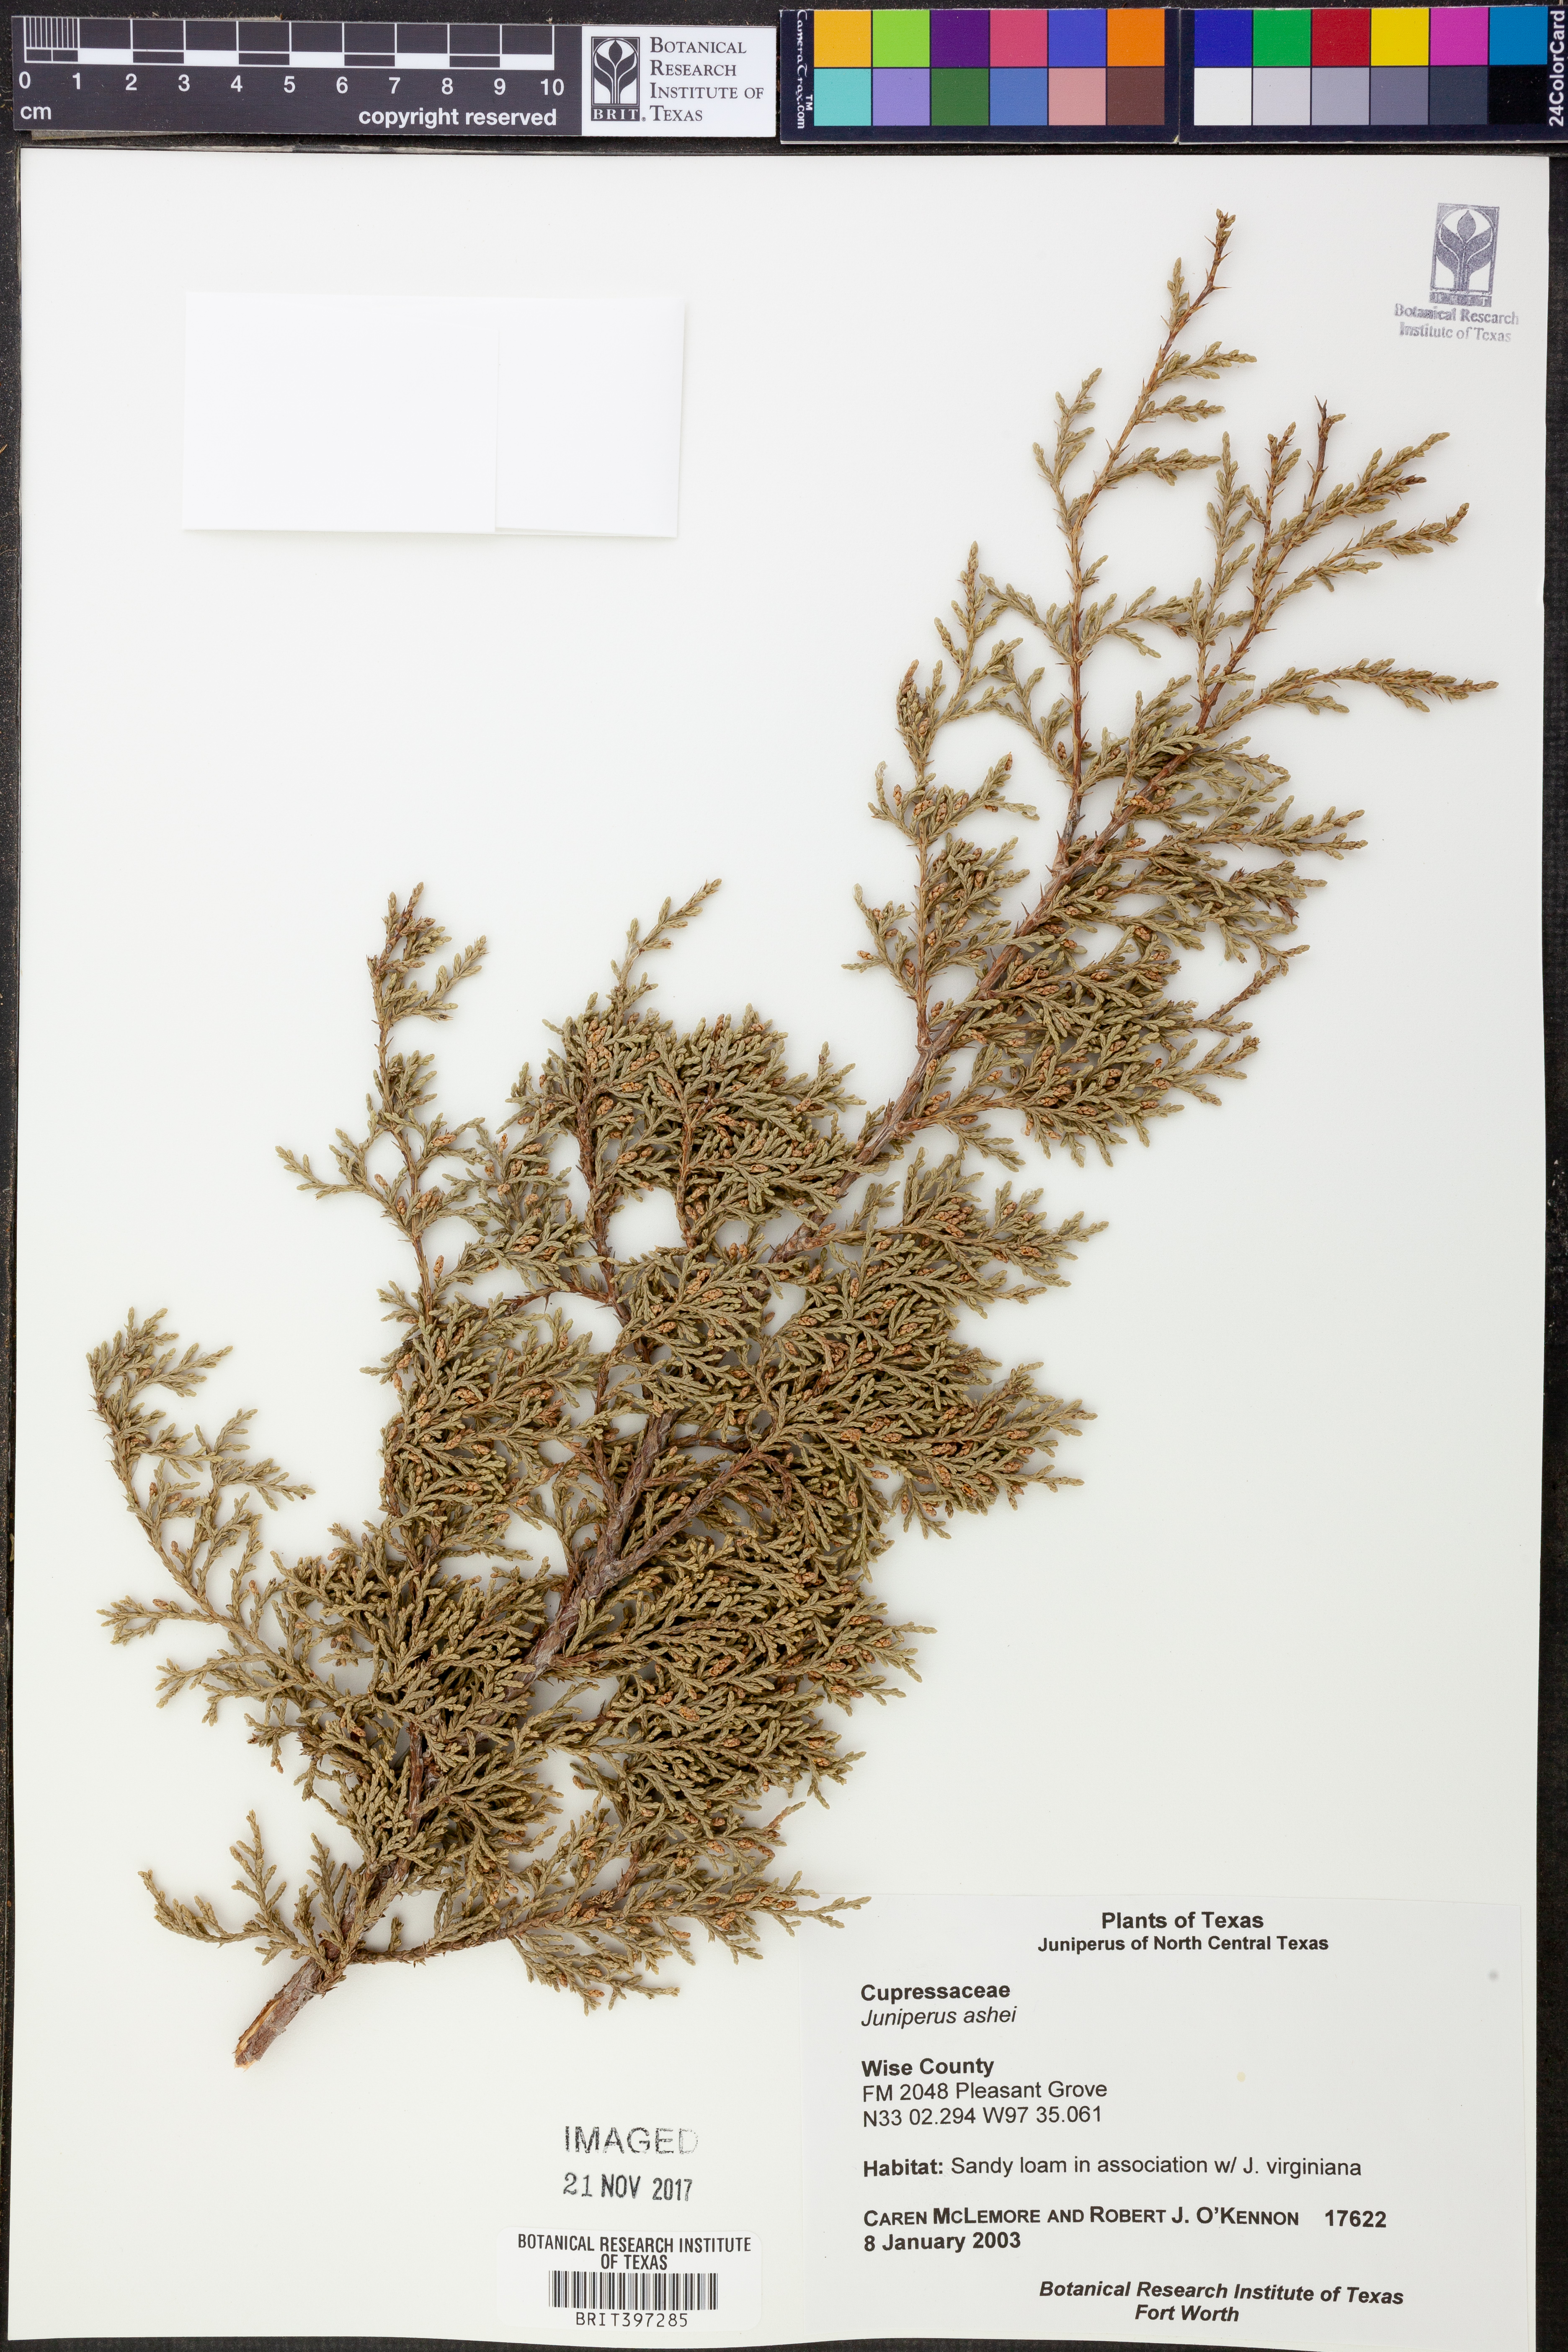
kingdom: Plantae
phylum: Tracheophyta
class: Pinopsida
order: Pinales
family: Cupressaceae
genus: Juniperus
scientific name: Juniperus ashei
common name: Mexican juniper
